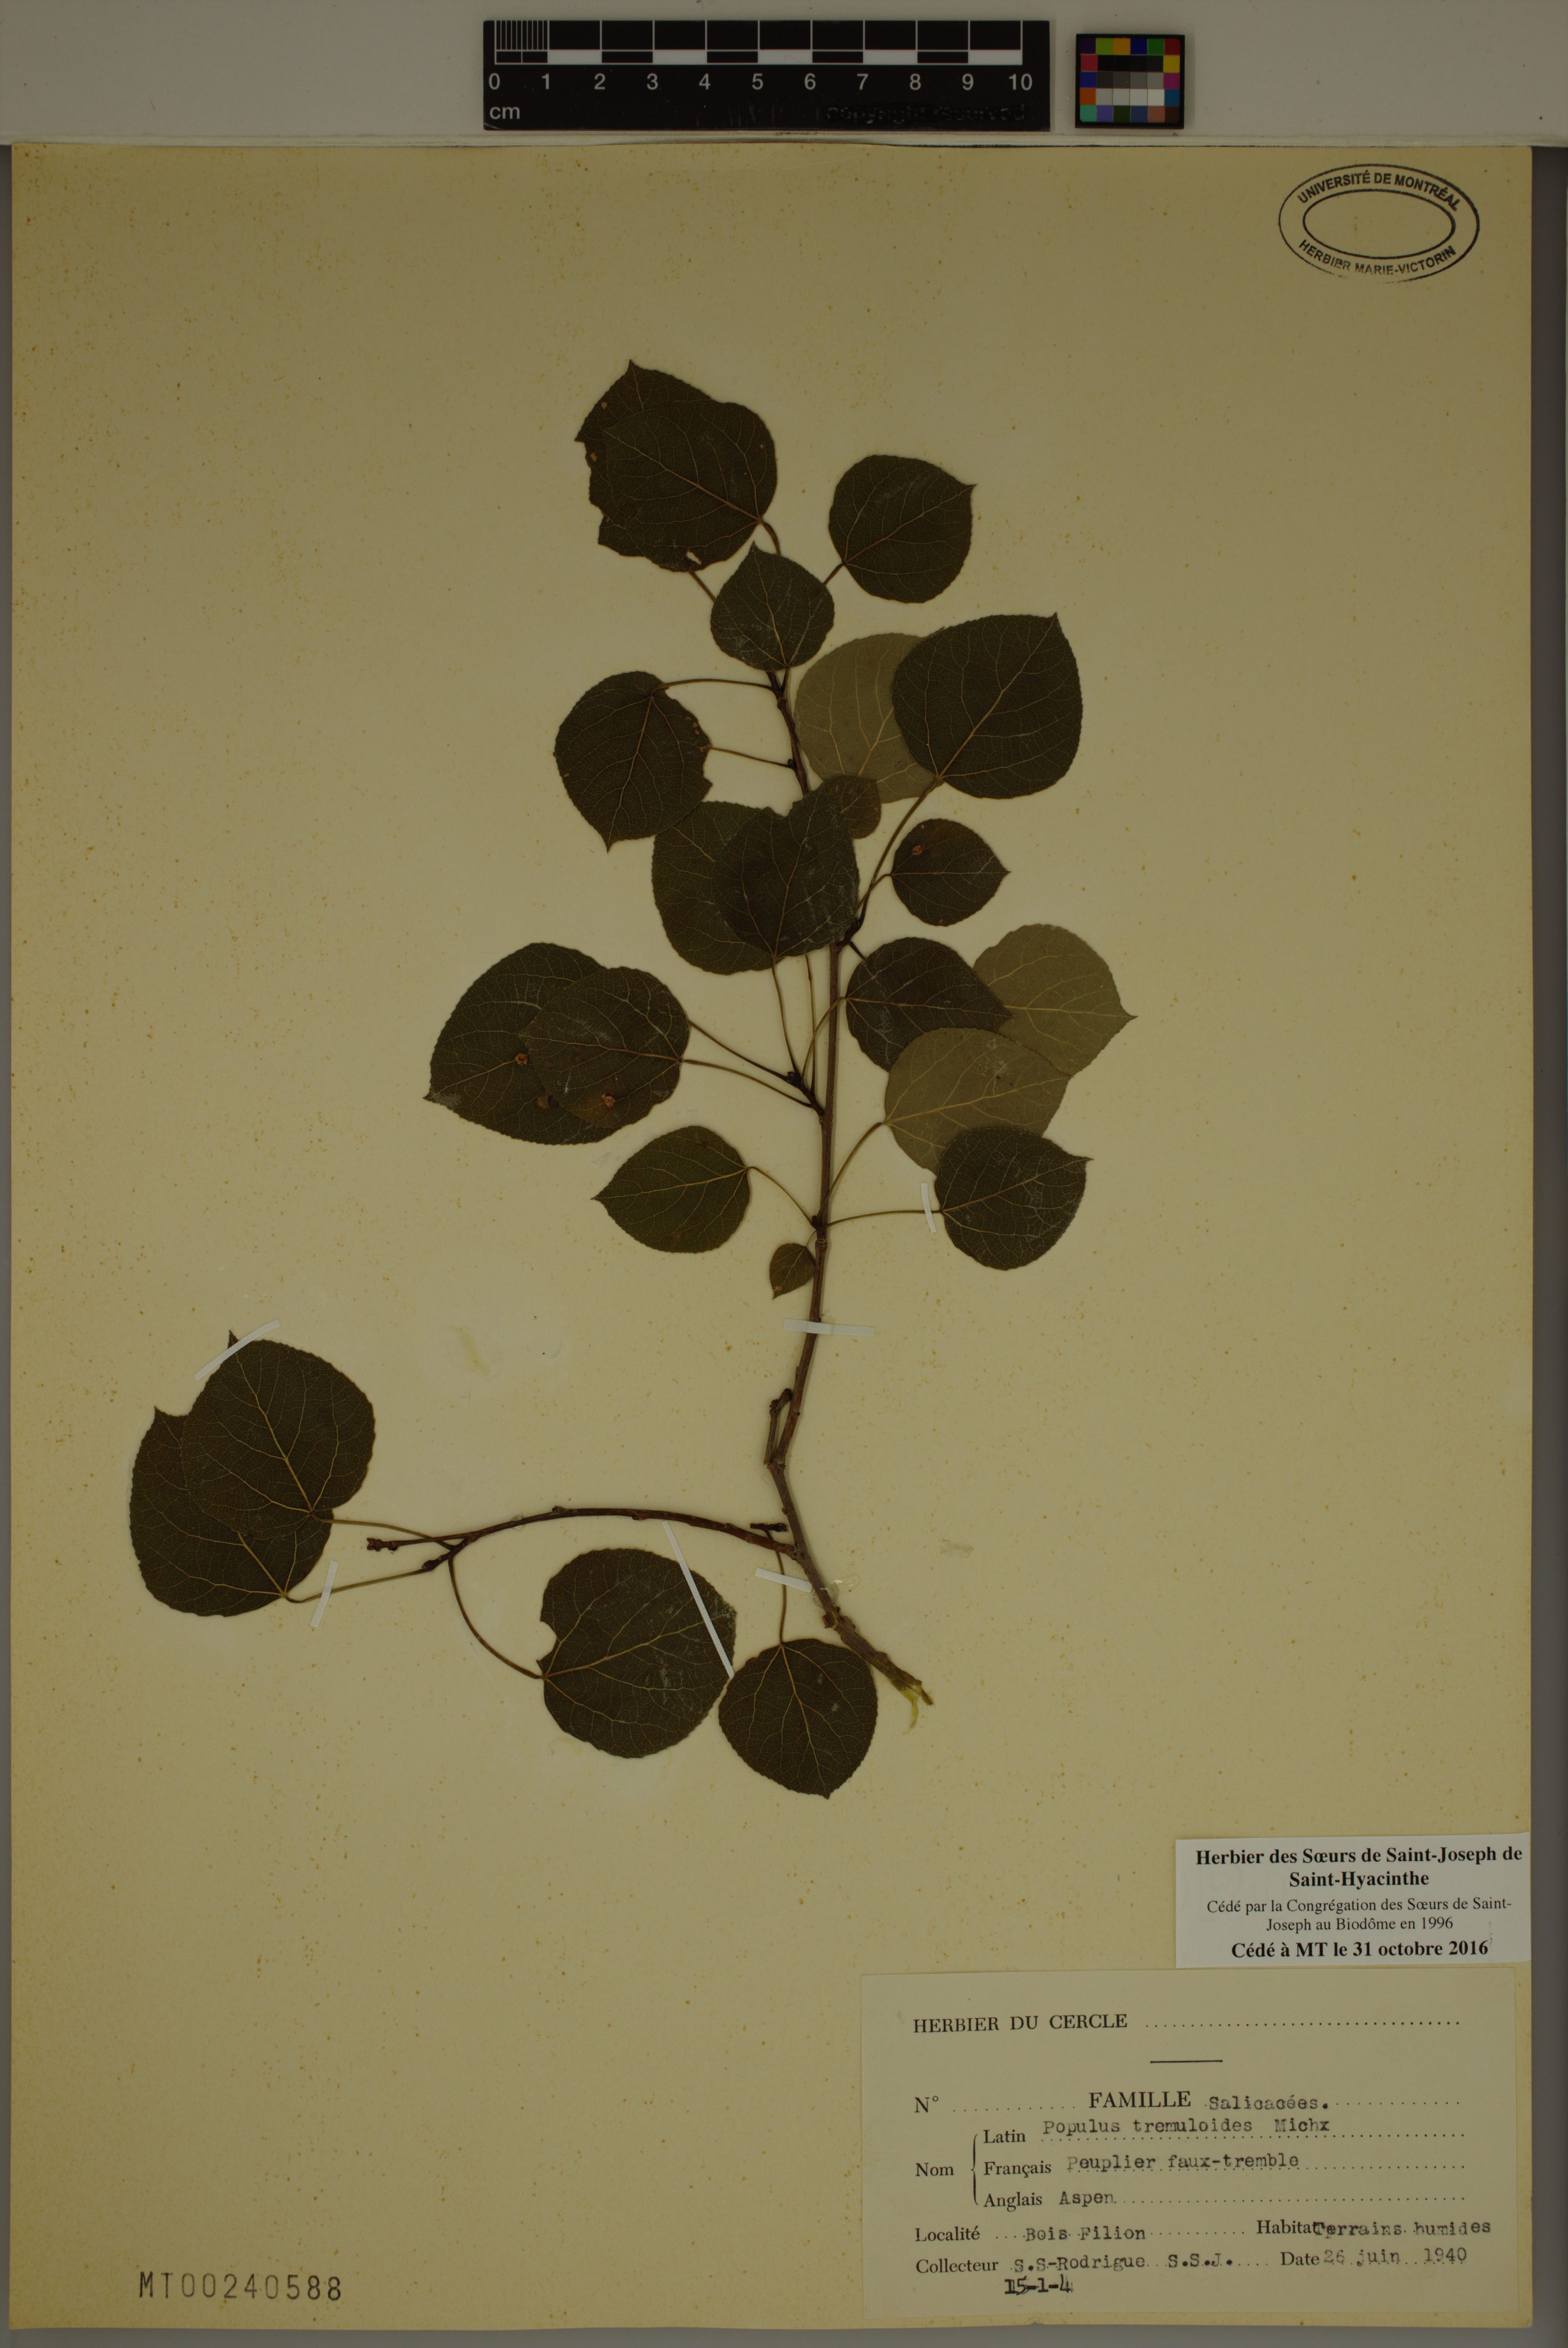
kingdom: Plantae
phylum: Tracheophyta
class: Magnoliopsida
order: Malpighiales
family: Salicaceae
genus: Populus
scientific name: Populus tremuloides
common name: Quaking aspen
